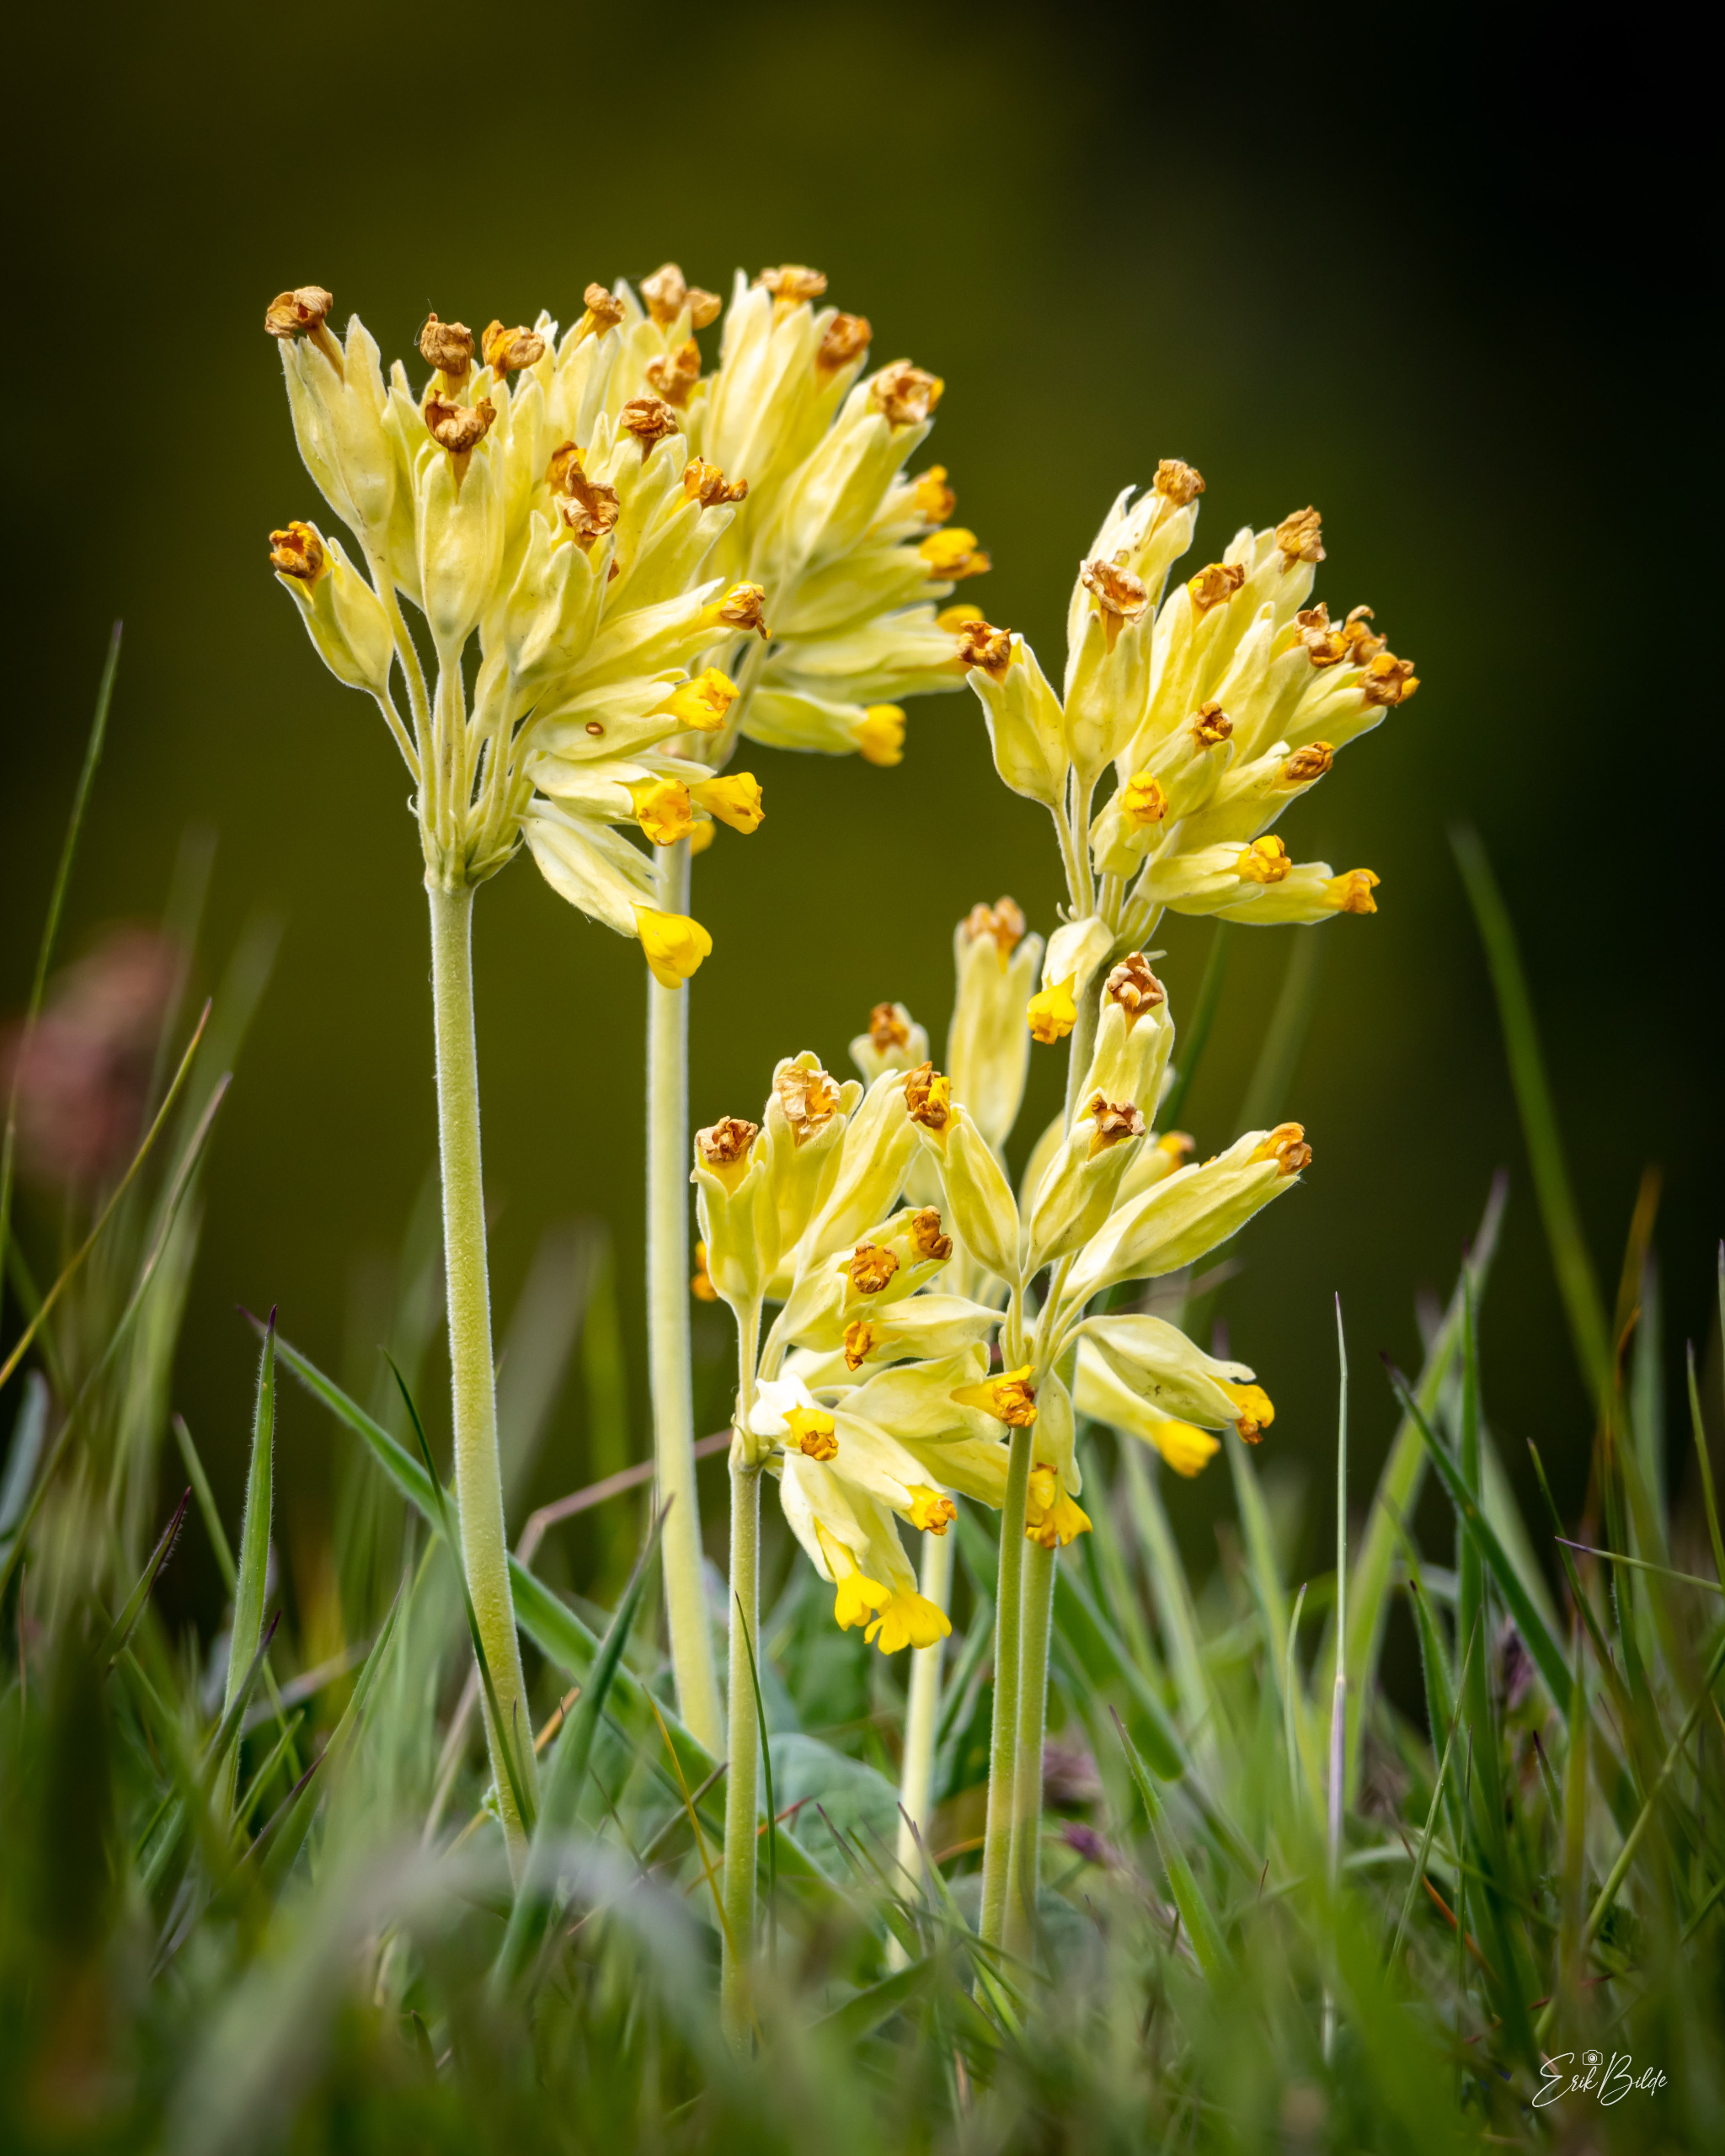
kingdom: Plantae
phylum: Tracheophyta
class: Magnoliopsida
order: Ericales
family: Primulaceae
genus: Primula
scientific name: Primula veris
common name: Hulkravet kodriver
